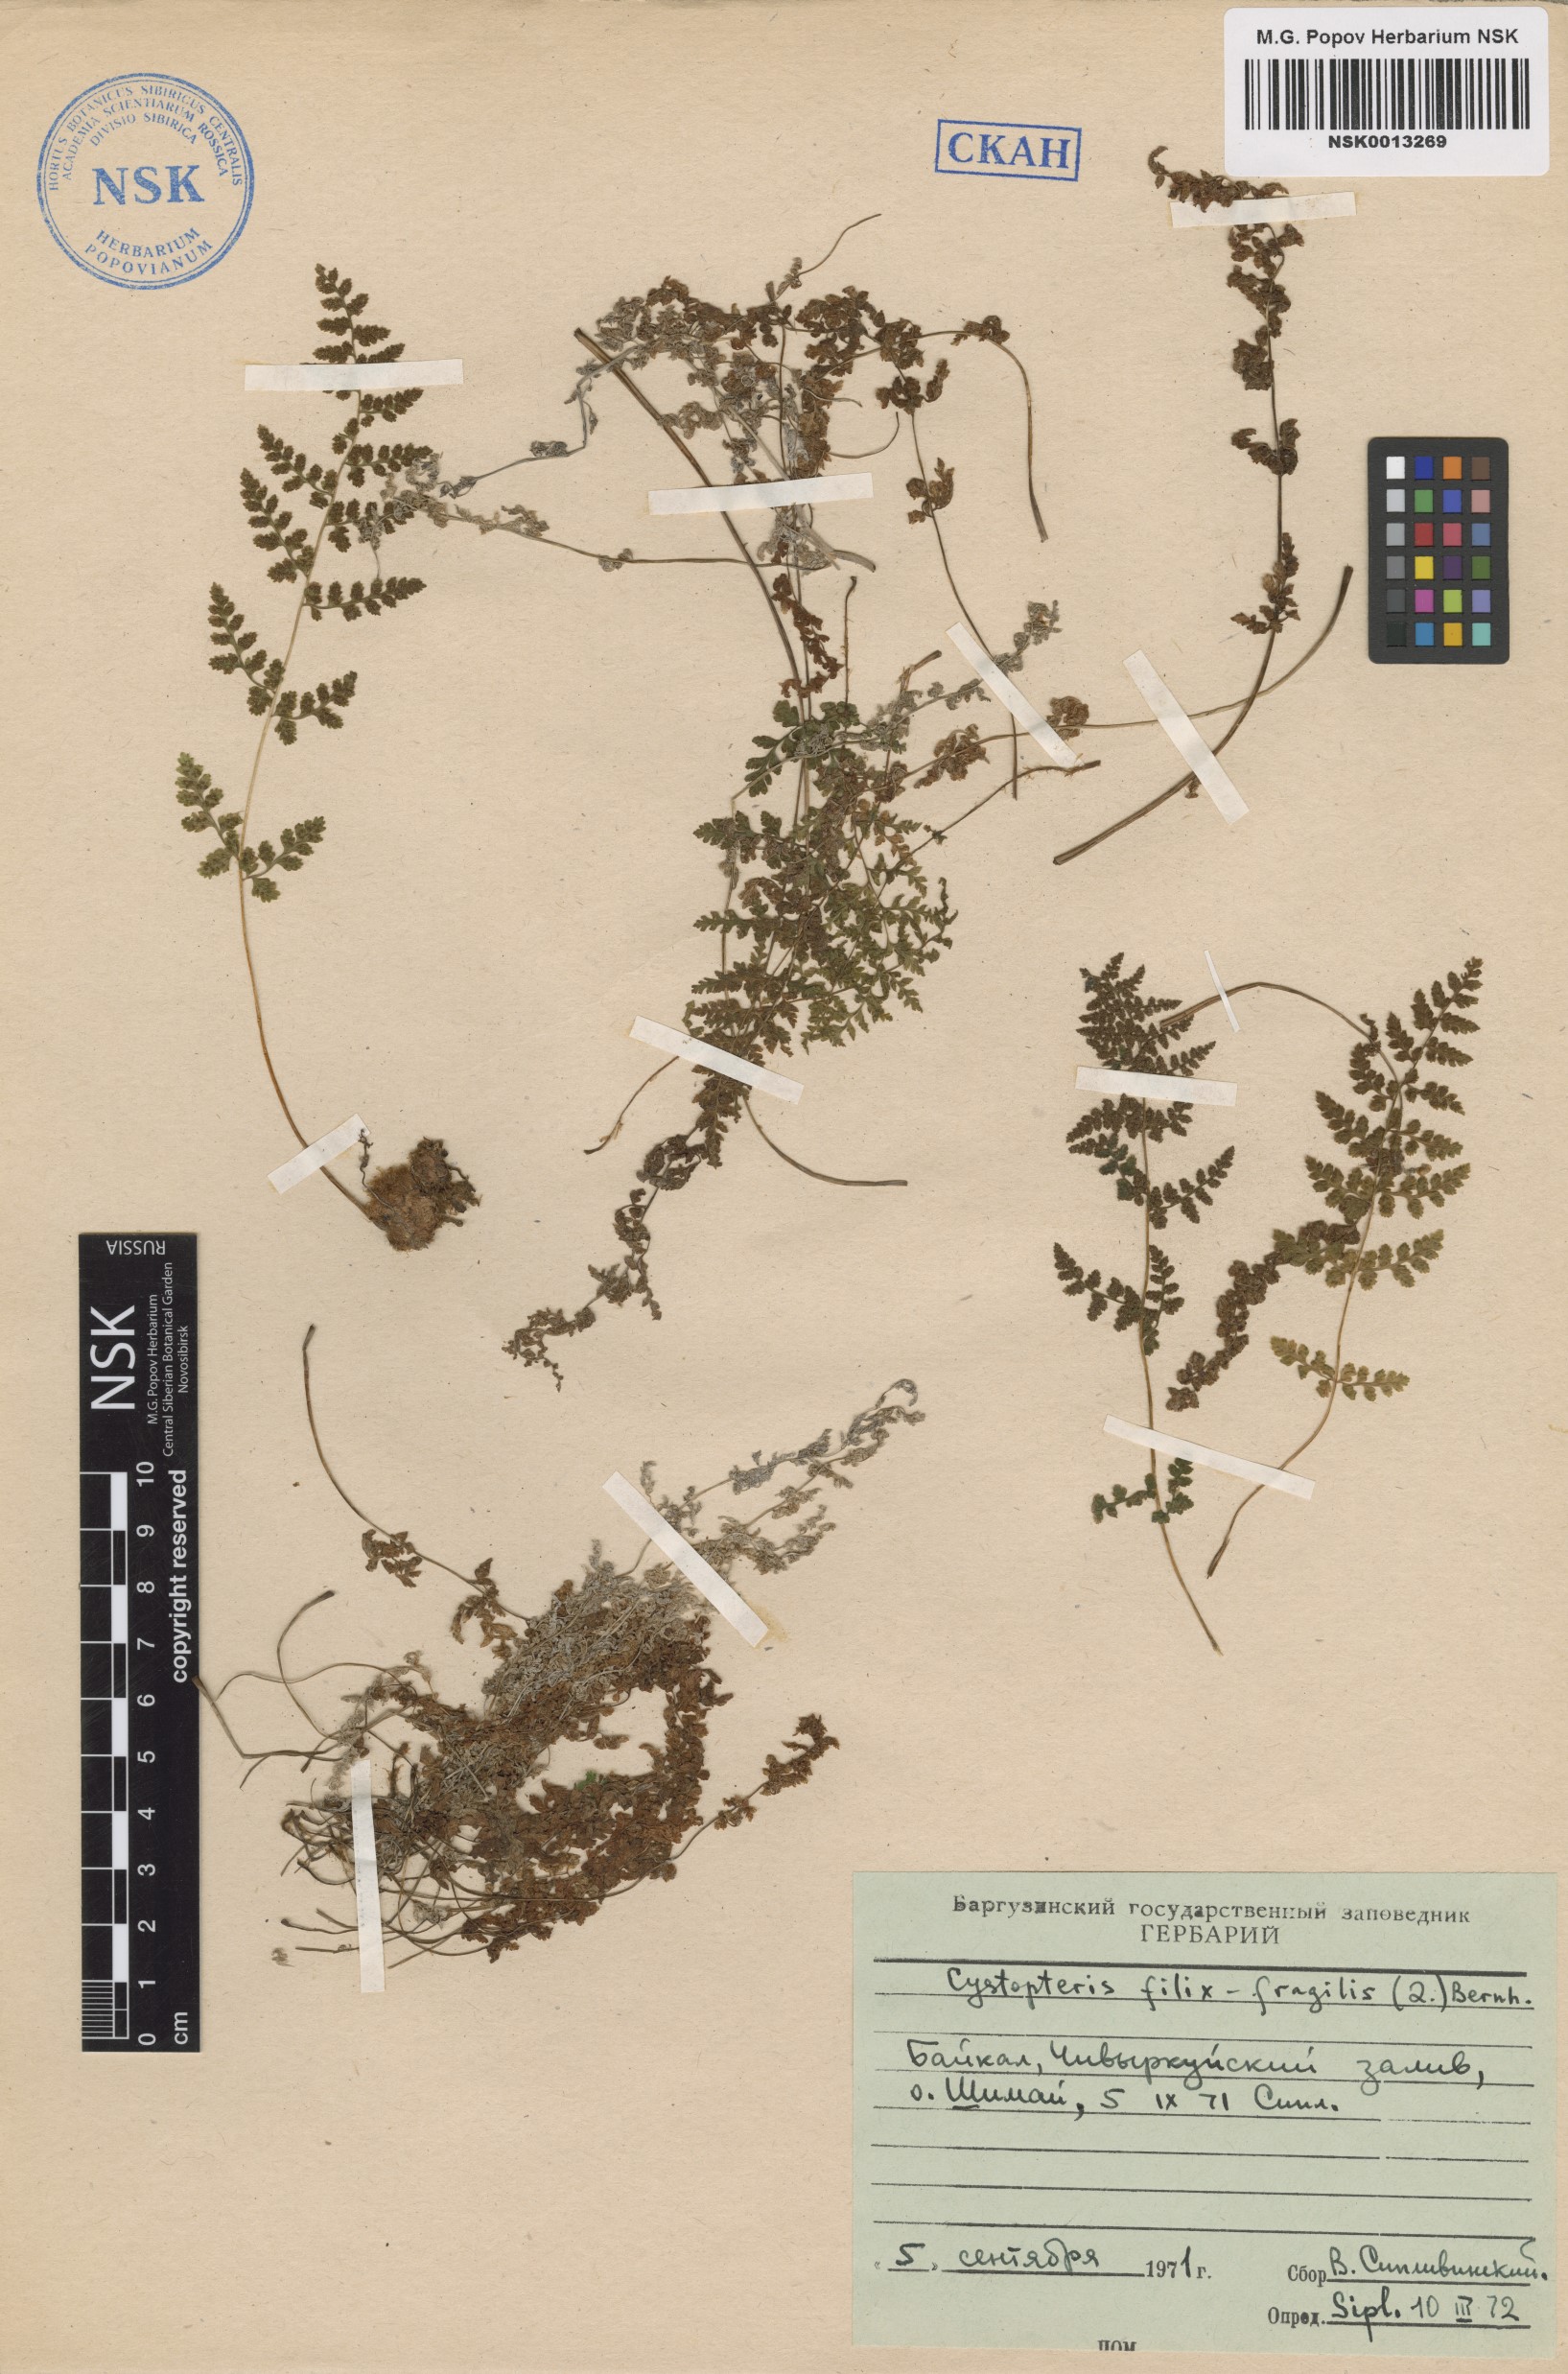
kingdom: Plantae
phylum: Tracheophyta
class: Polypodiopsida
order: Polypodiales
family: Cystopteridaceae
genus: Cystopteris
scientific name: Cystopteris fragilis
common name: Brittle bladder fern
